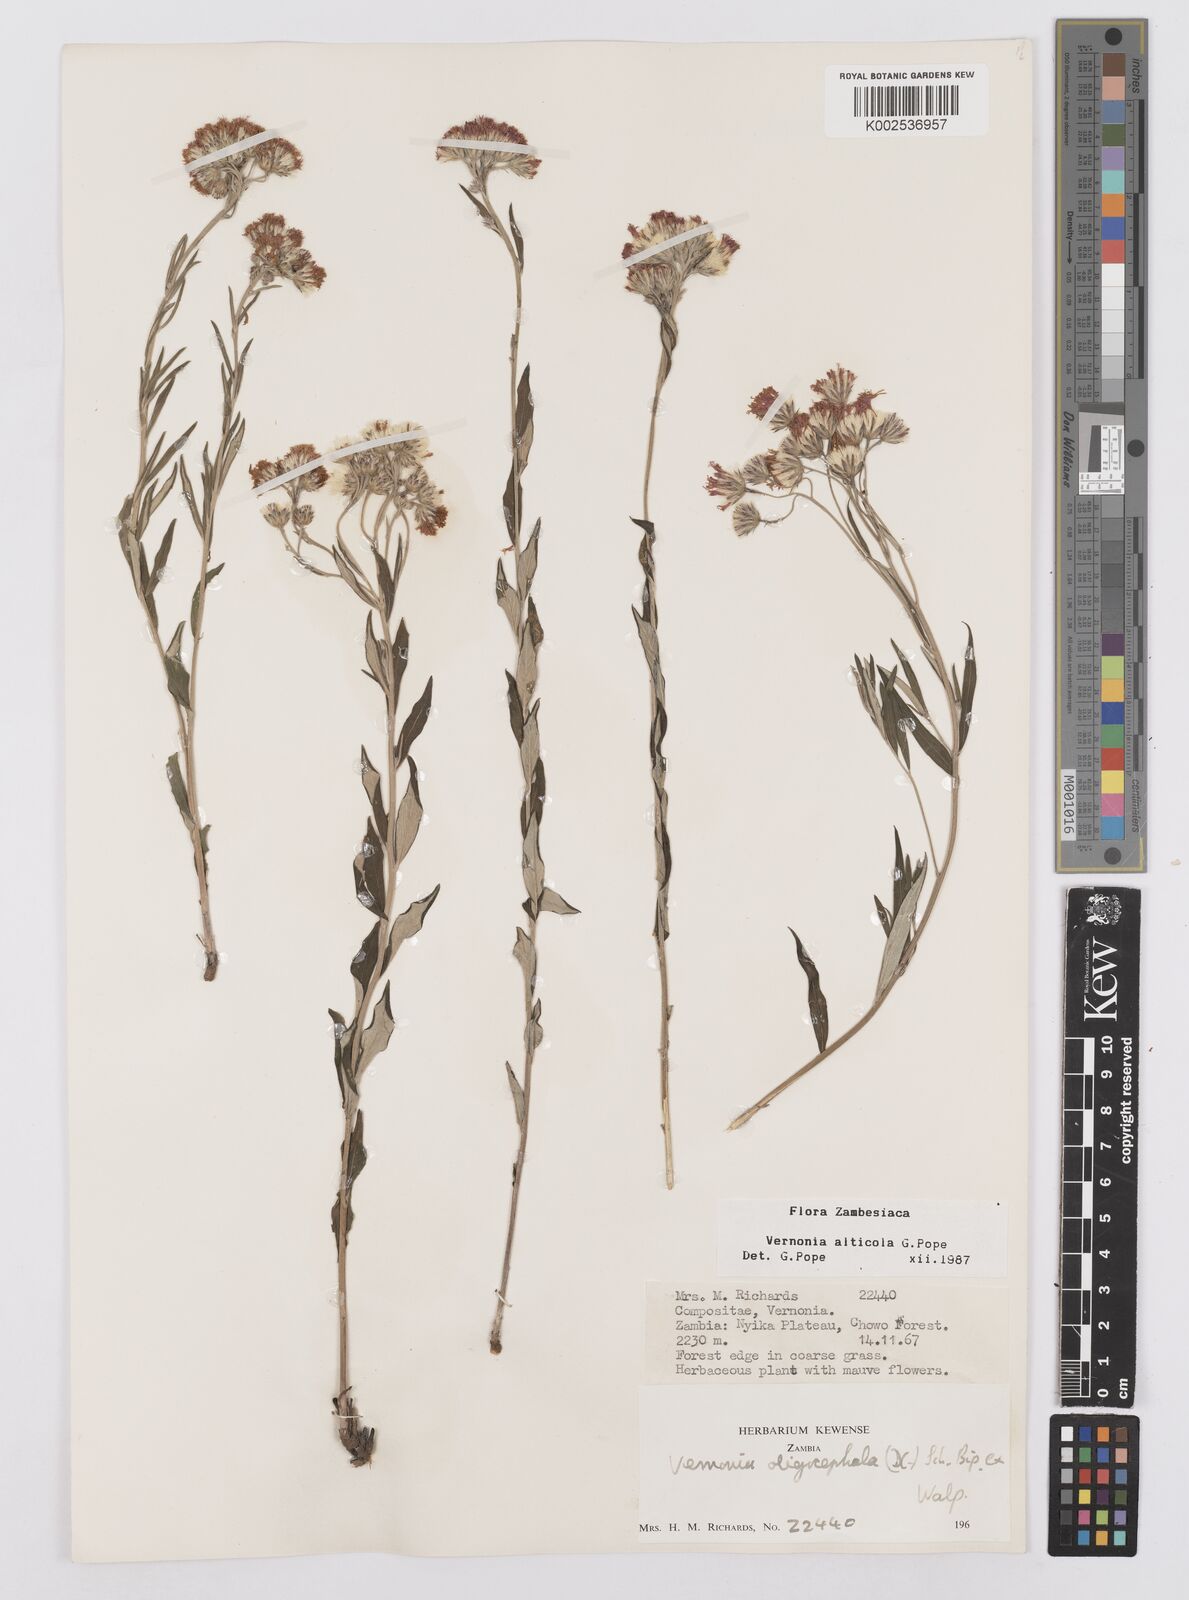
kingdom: Plantae
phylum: Tracheophyta
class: Magnoliopsida
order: Asterales
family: Asteraceae
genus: Vernonia
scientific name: Vernonia alticola
